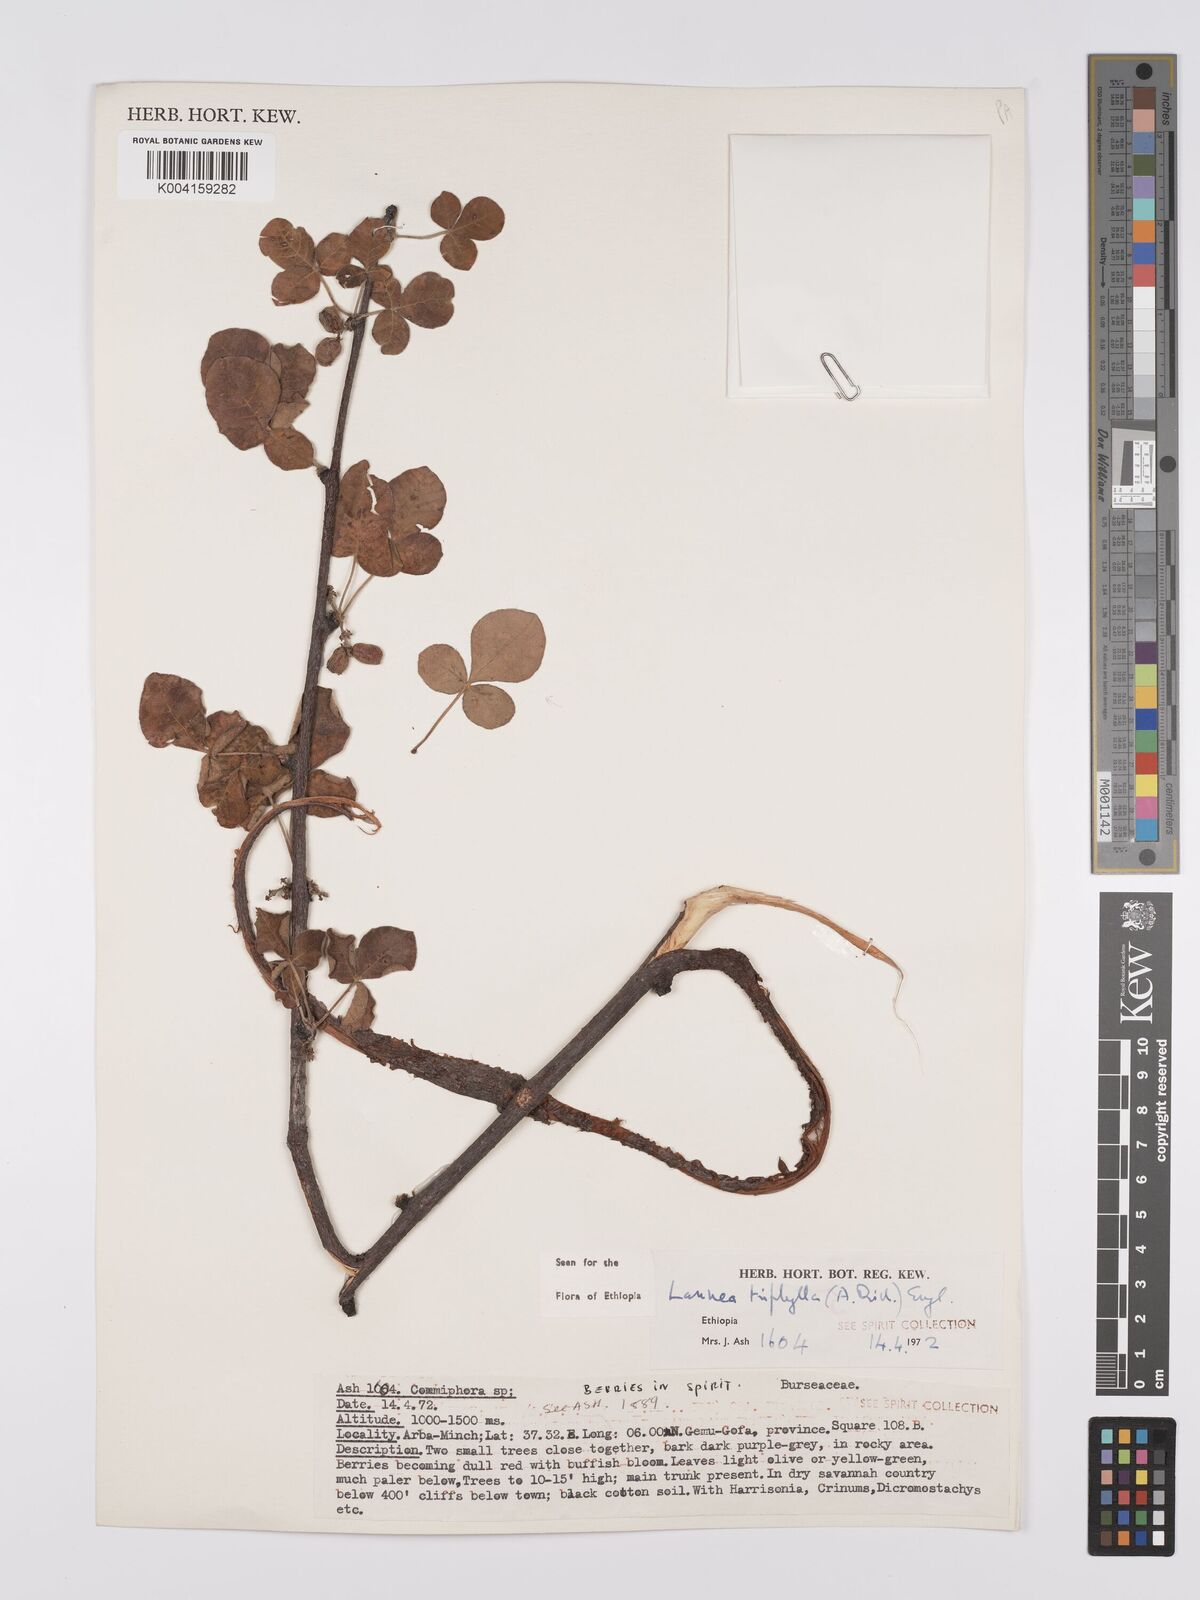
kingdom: Plantae
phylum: Tracheophyta
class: Magnoliopsida
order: Sapindales
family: Anacardiaceae
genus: Lannea
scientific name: Lannea triphylla
